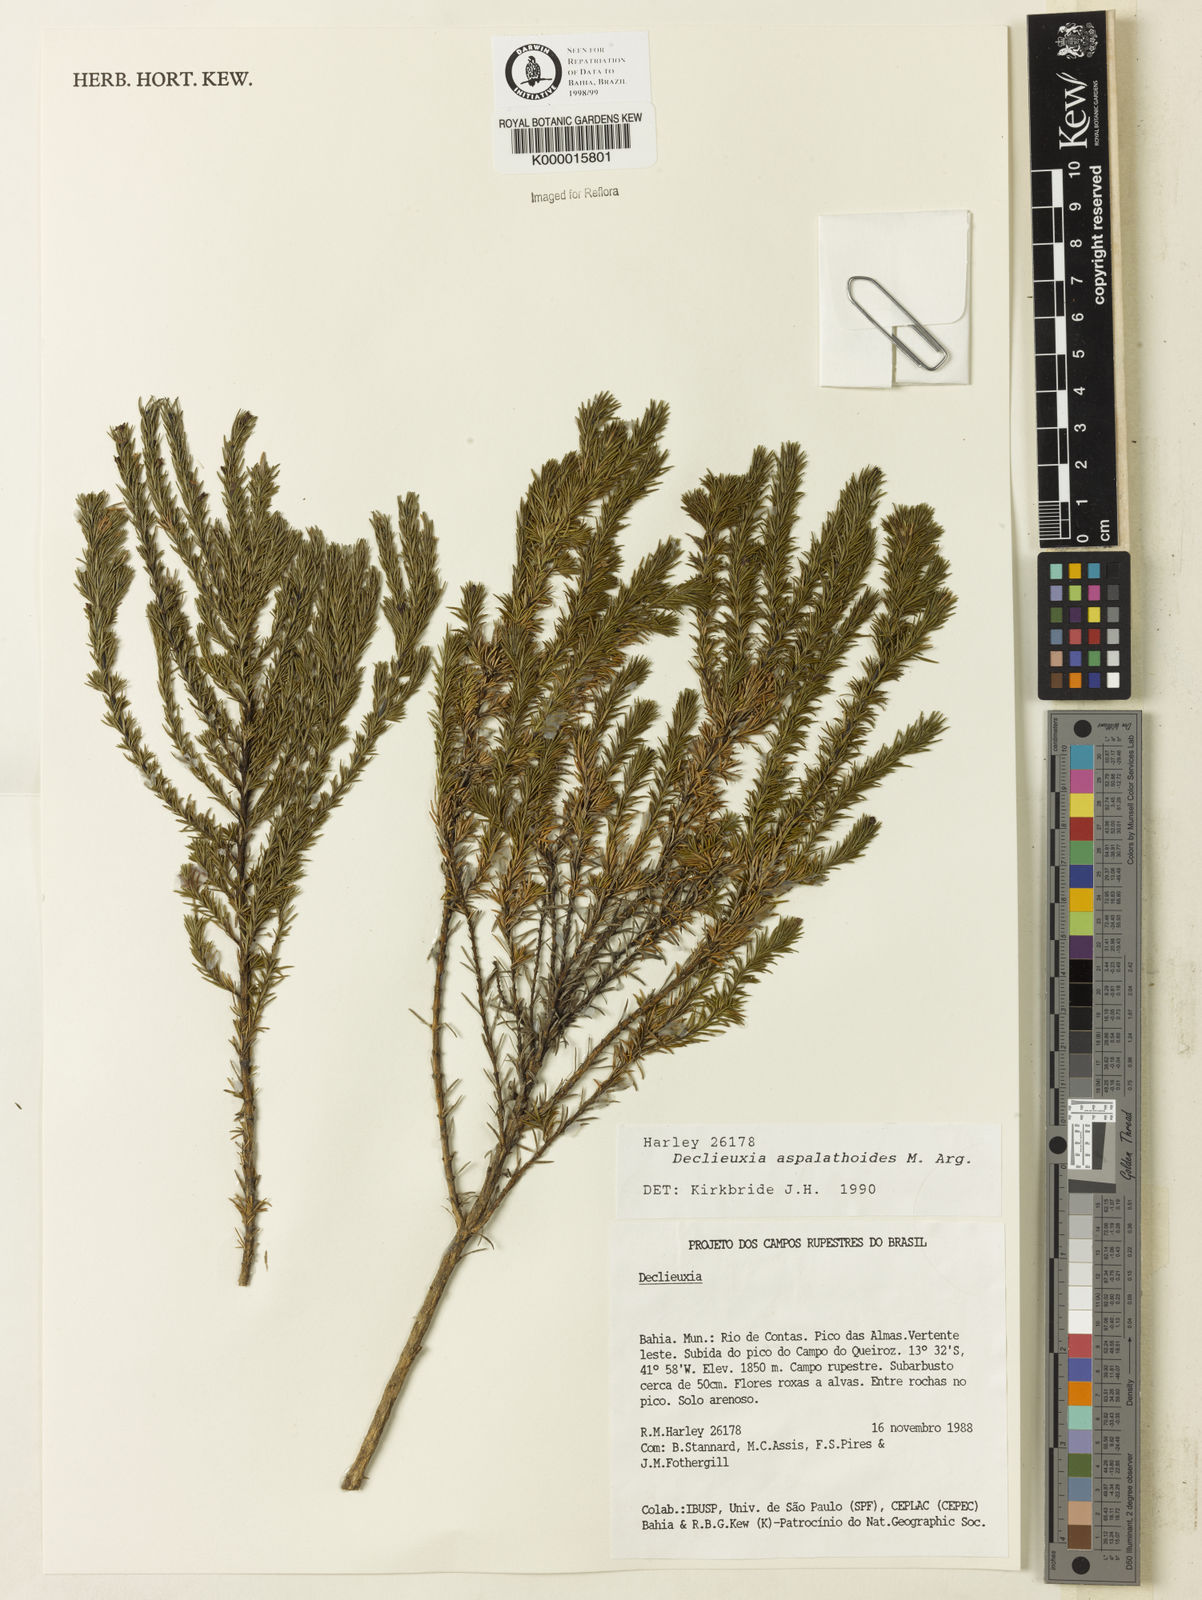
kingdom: Plantae
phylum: Tracheophyta
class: Magnoliopsida
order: Gentianales
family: Rubiaceae
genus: Declieuxia
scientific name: Declieuxia aspalathoides
